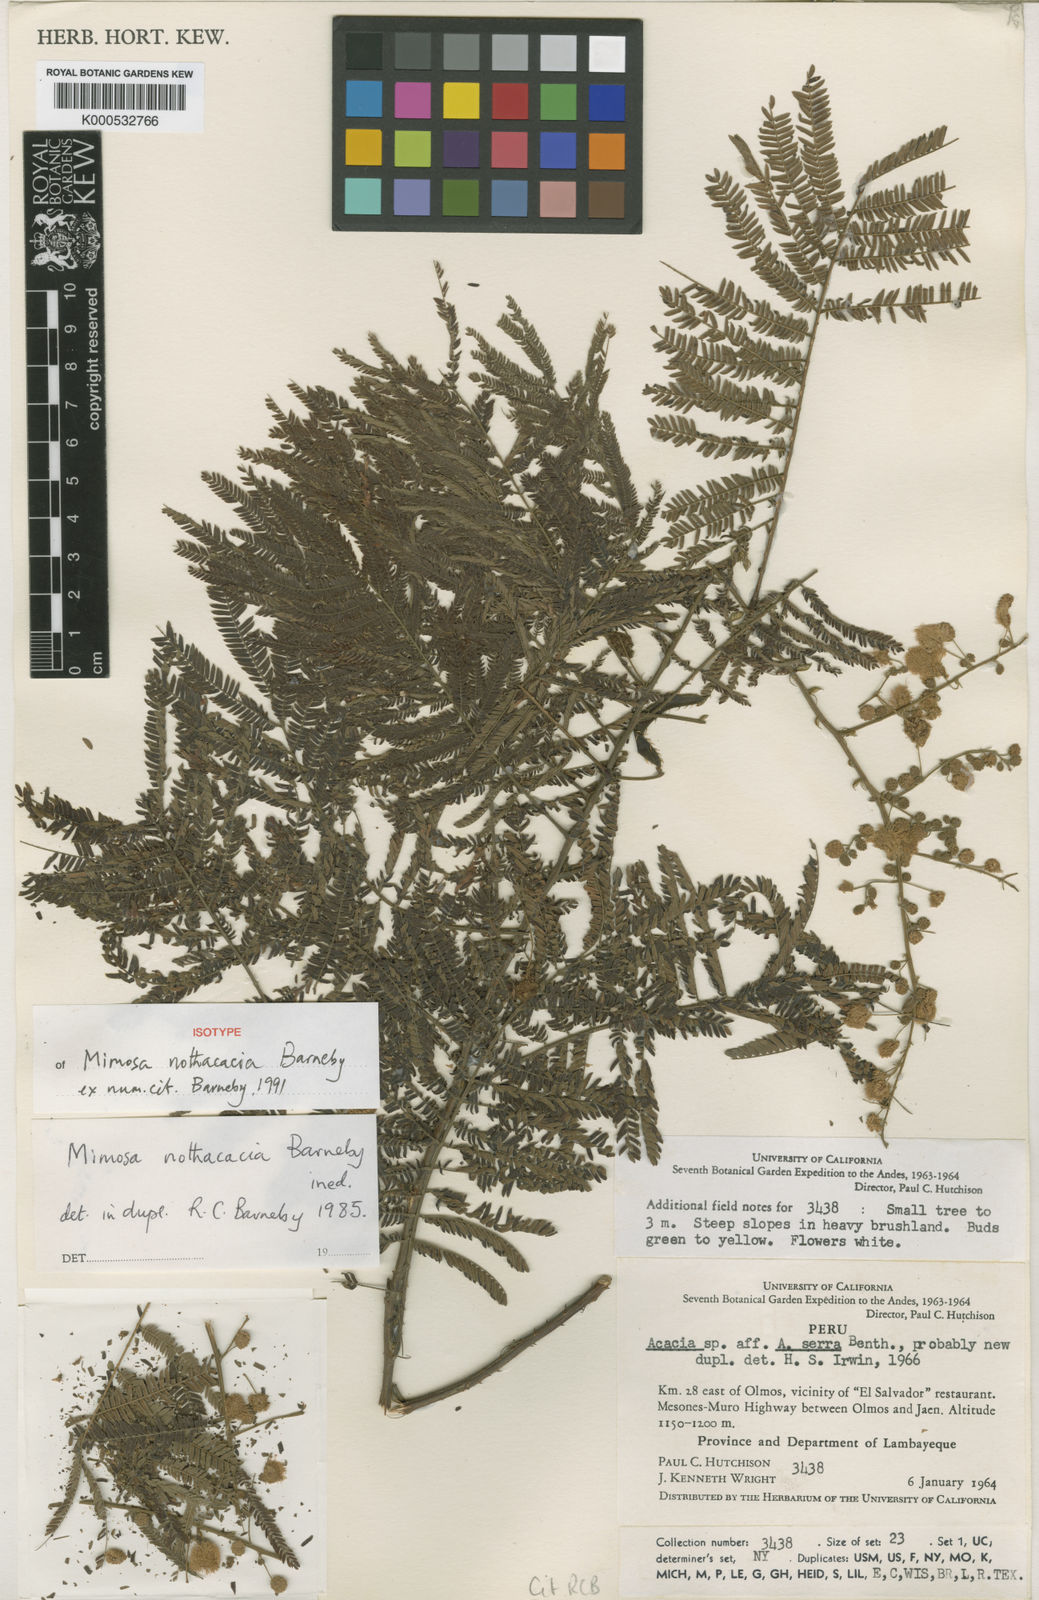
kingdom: Plantae
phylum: Tracheophyta
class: Magnoliopsida
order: Fabales
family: Fabaceae
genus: Mimosa
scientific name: Mimosa nothacacia
